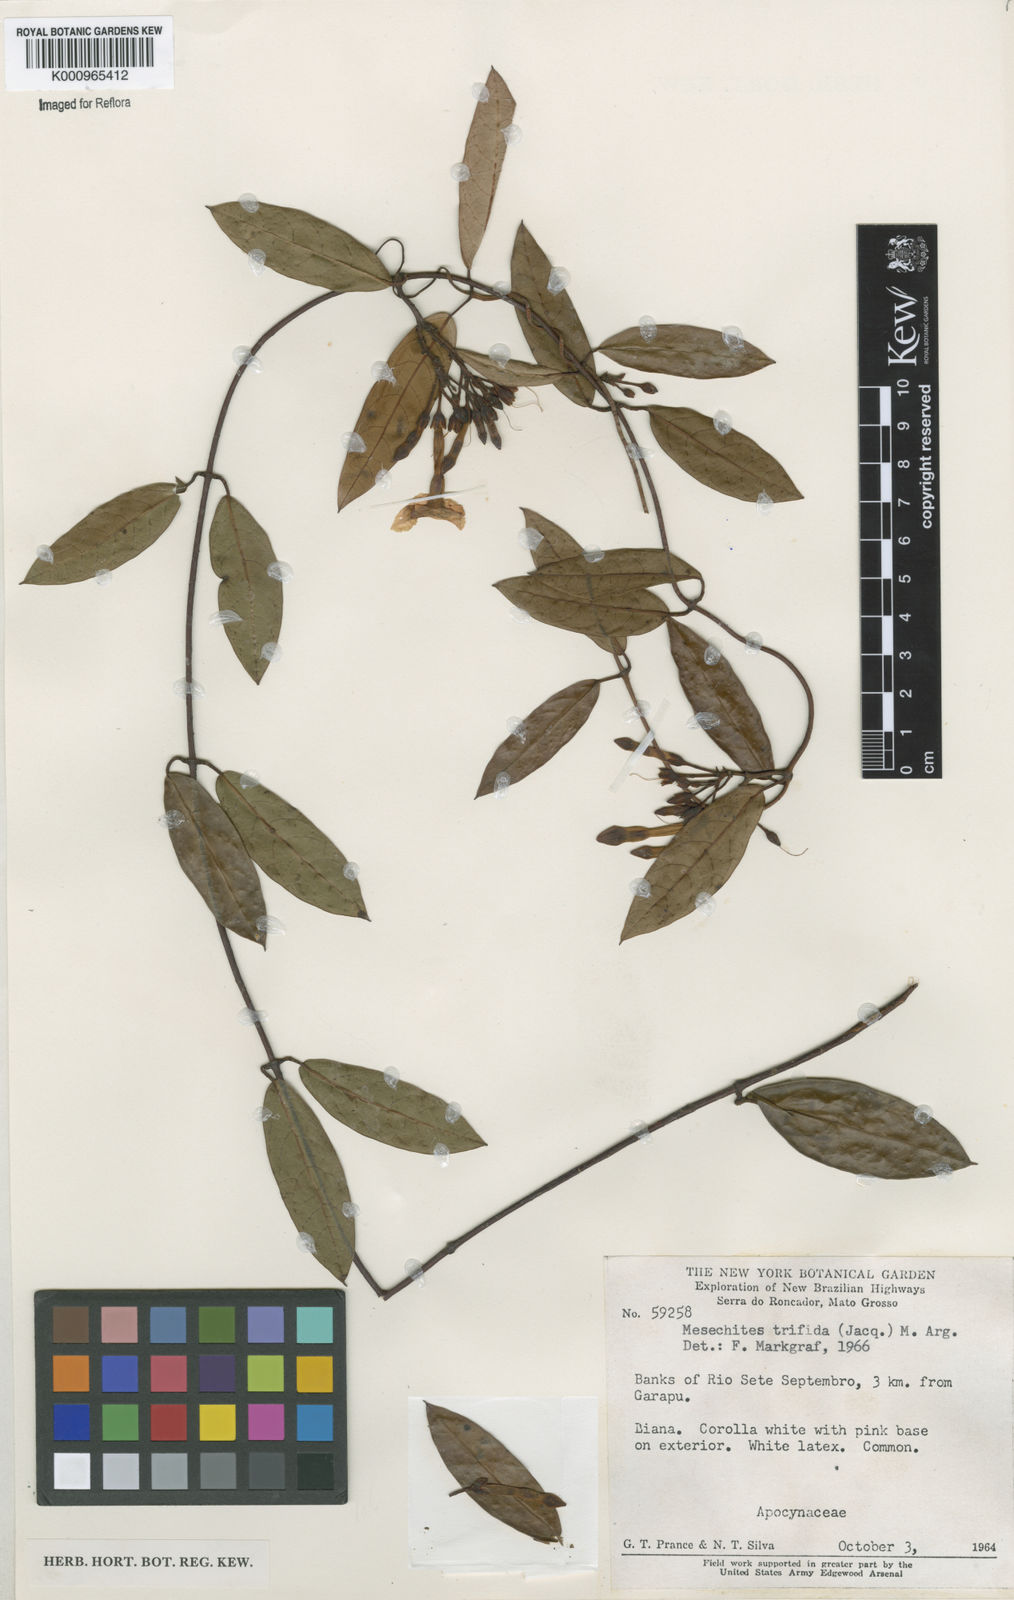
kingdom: Plantae
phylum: Tracheophyta
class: Magnoliopsida
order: Gentianales
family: Apocynaceae
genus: Mesechites
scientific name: Mesechites
